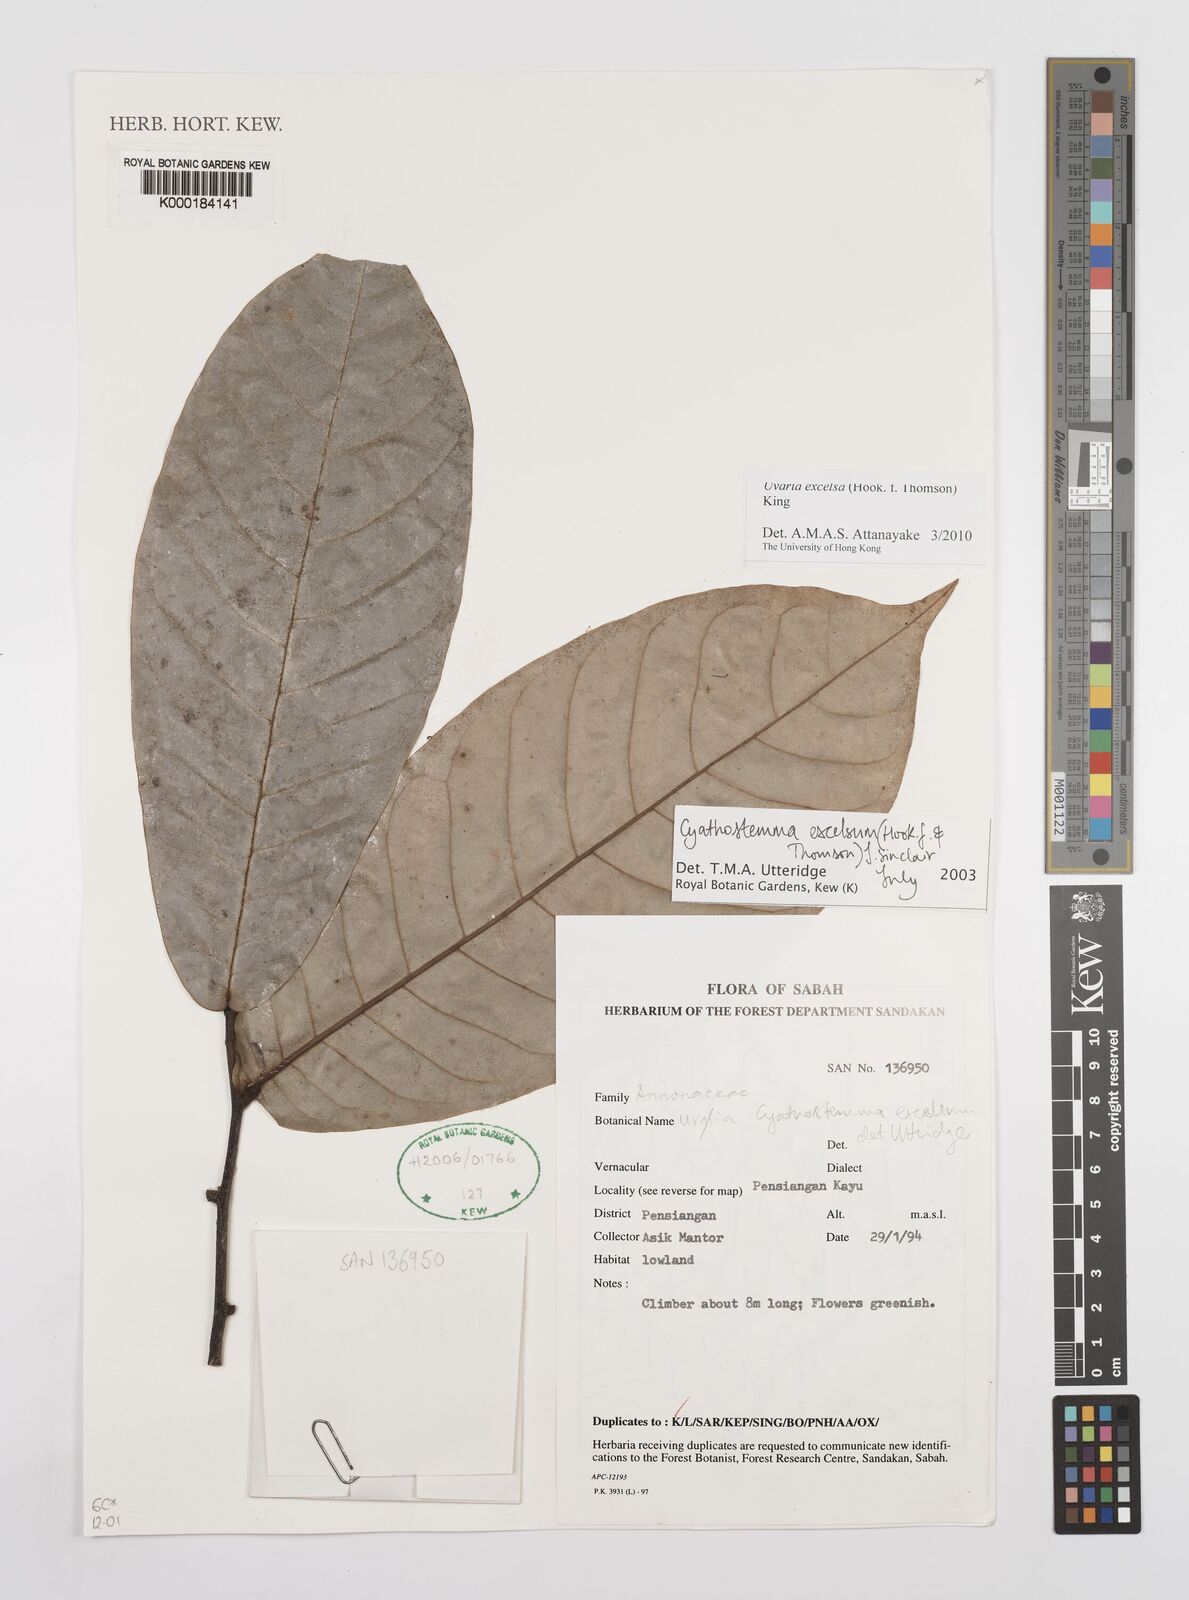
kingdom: Plantae
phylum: Tracheophyta
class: Magnoliopsida
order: Magnoliales
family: Annonaceae
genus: Uvaria
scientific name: Uvaria excelsa
